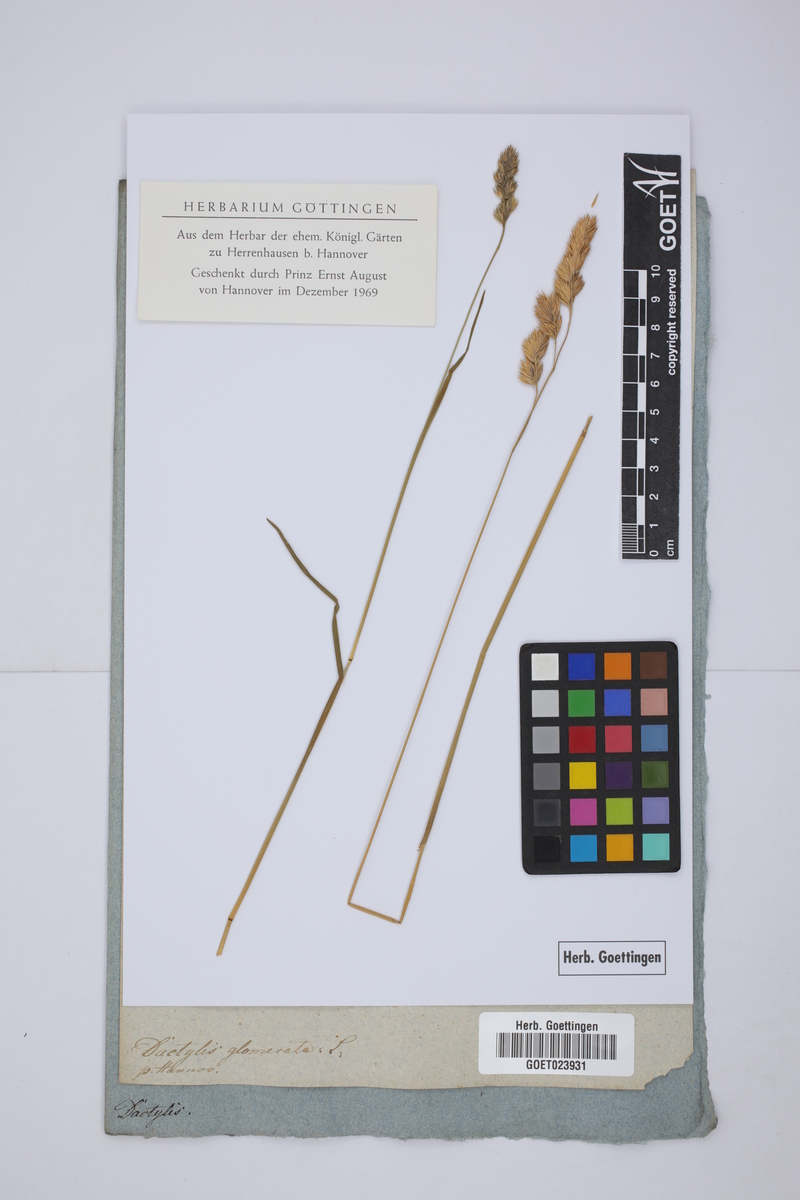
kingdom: Plantae
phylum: Tracheophyta
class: Liliopsida
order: Poales
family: Poaceae
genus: Dactylis
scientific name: Dactylis glomerata
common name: Orchardgrass
